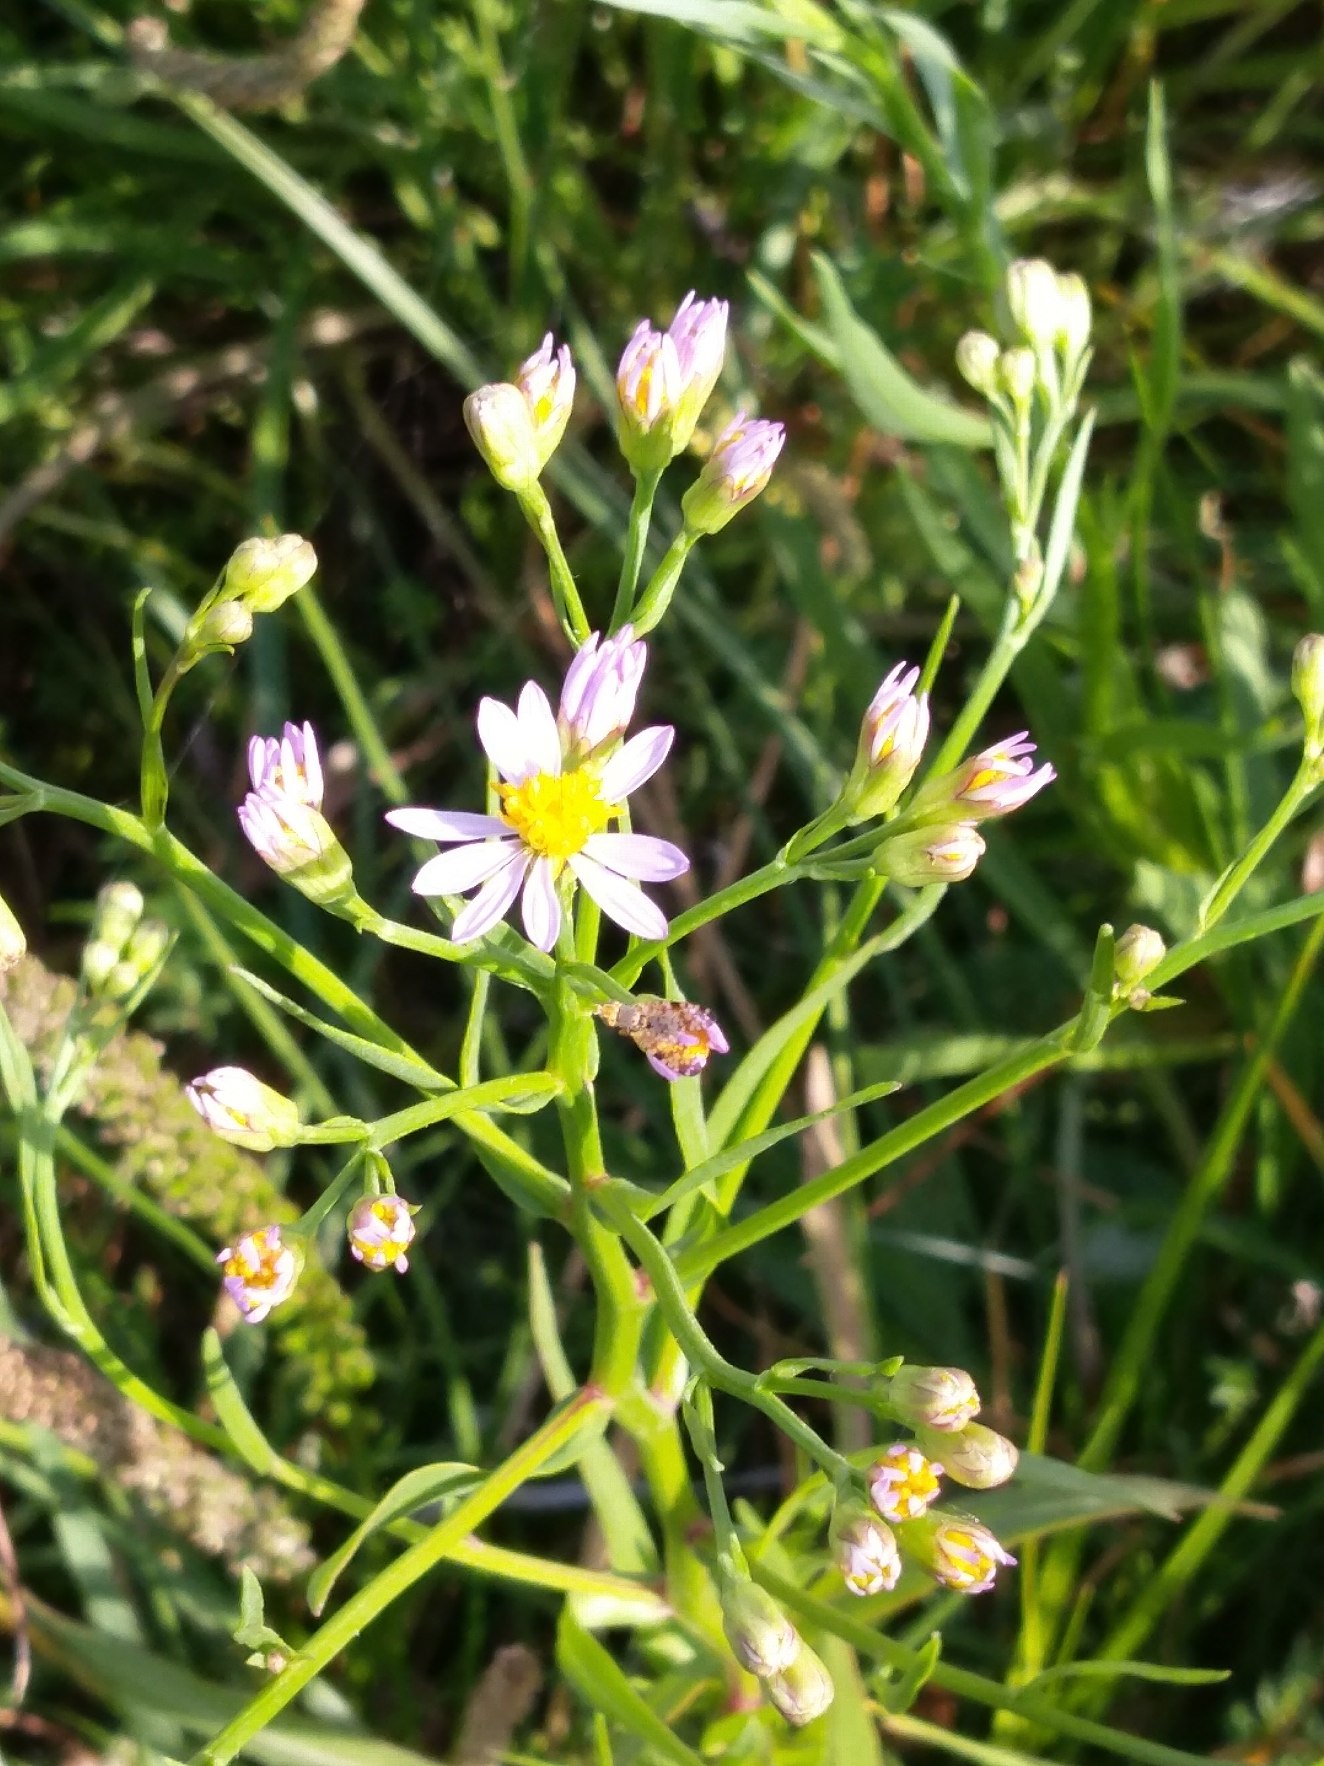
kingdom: Plantae
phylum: Tracheophyta
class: Magnoliopsida
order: Asterales
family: Asteraceae
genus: Tripolium
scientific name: Tripolium pannonicum
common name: Strandasters
